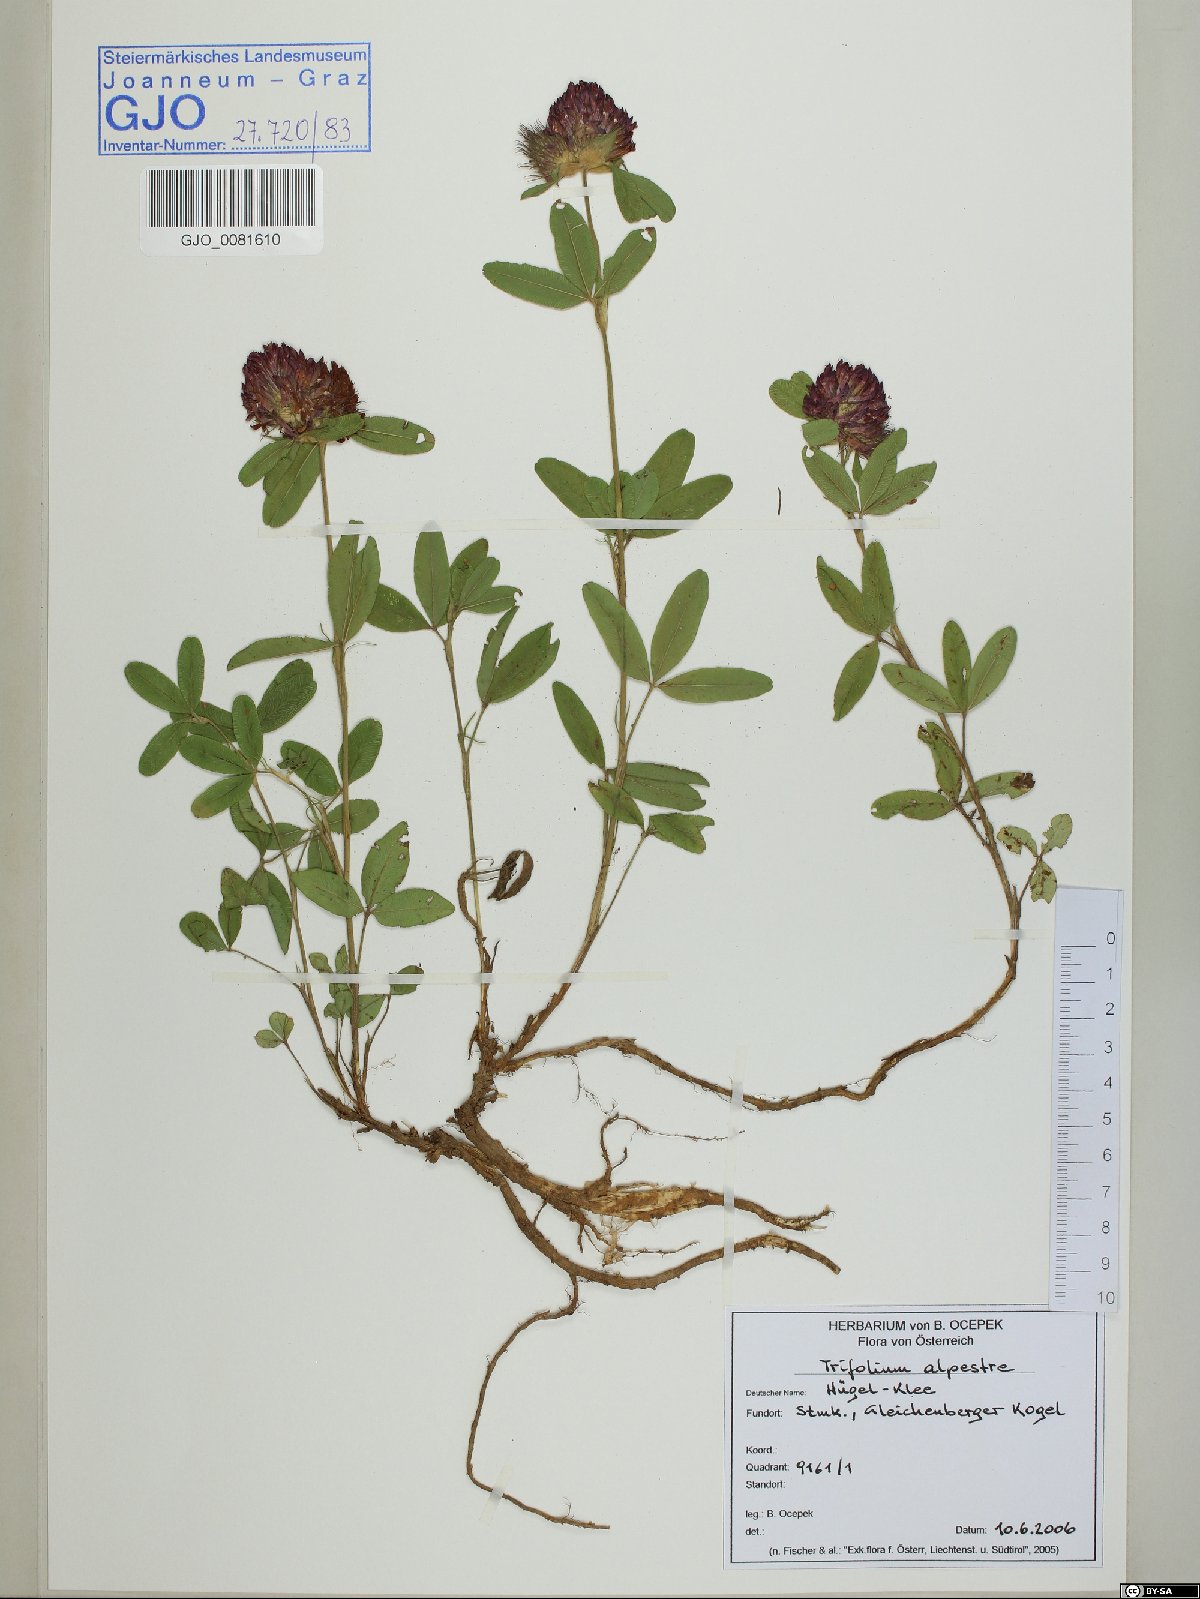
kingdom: Plantae
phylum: Tracheophyta
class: Magnoliopsida
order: Fabales
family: Fabaceae
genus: Trifolium
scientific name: Trifolium alpestre
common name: Owl-head clover
